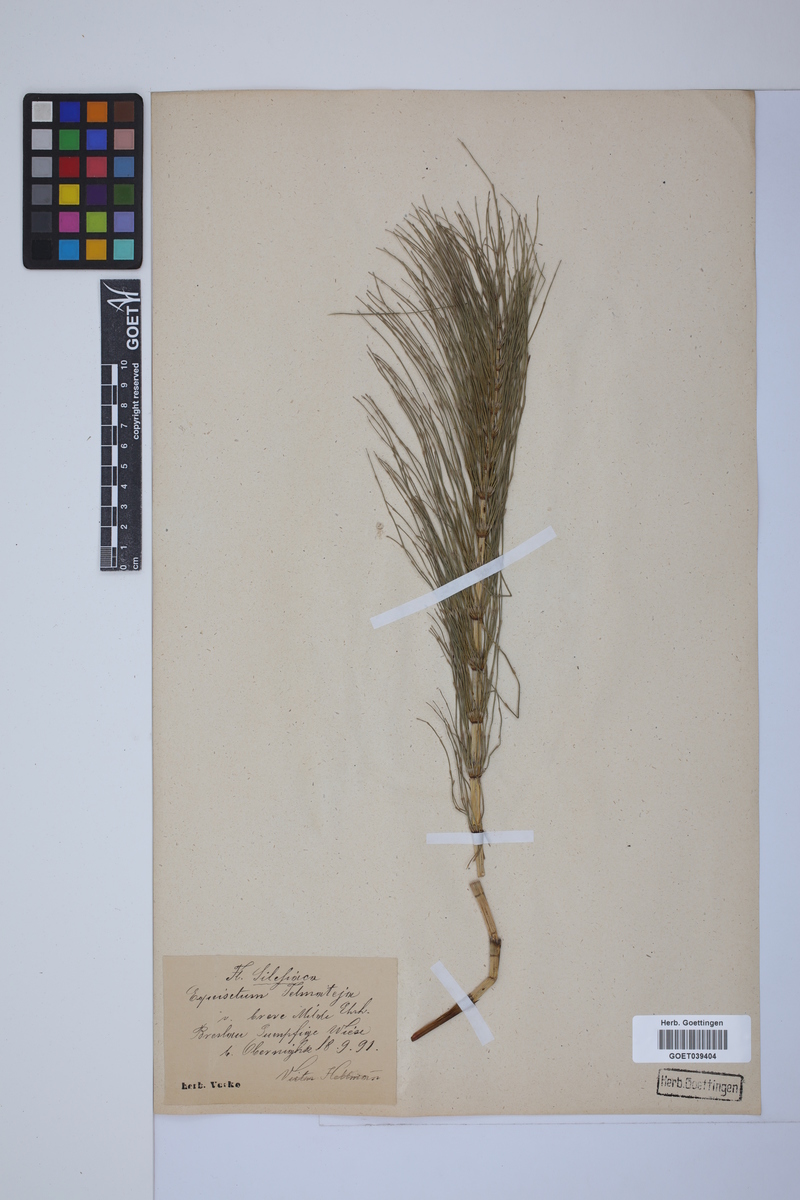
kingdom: Plantae
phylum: Tracheophyta
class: Polypodiopsida
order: Equisetales
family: Equisetaceae
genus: Equisetum
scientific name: Equisetum telmateia
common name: Great horsetail
